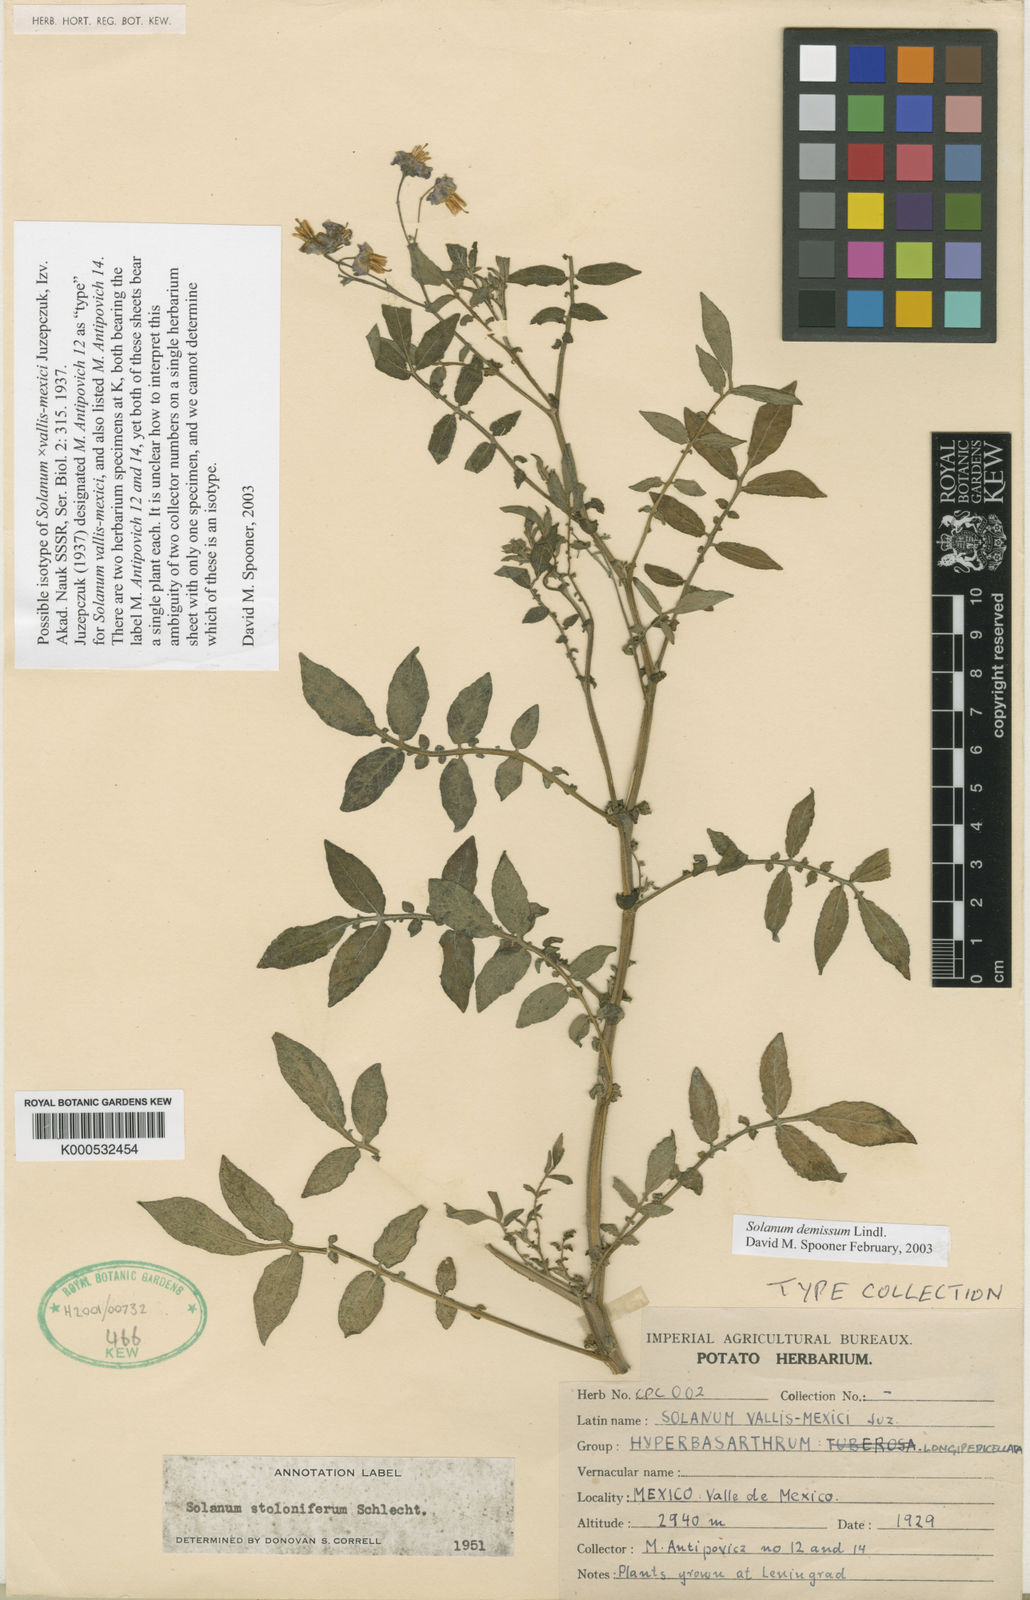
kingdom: Plantae
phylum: Tracheophyta
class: Magnoliopsida
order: Solanales
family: Solanaceae
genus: Solanum
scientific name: Solanum
